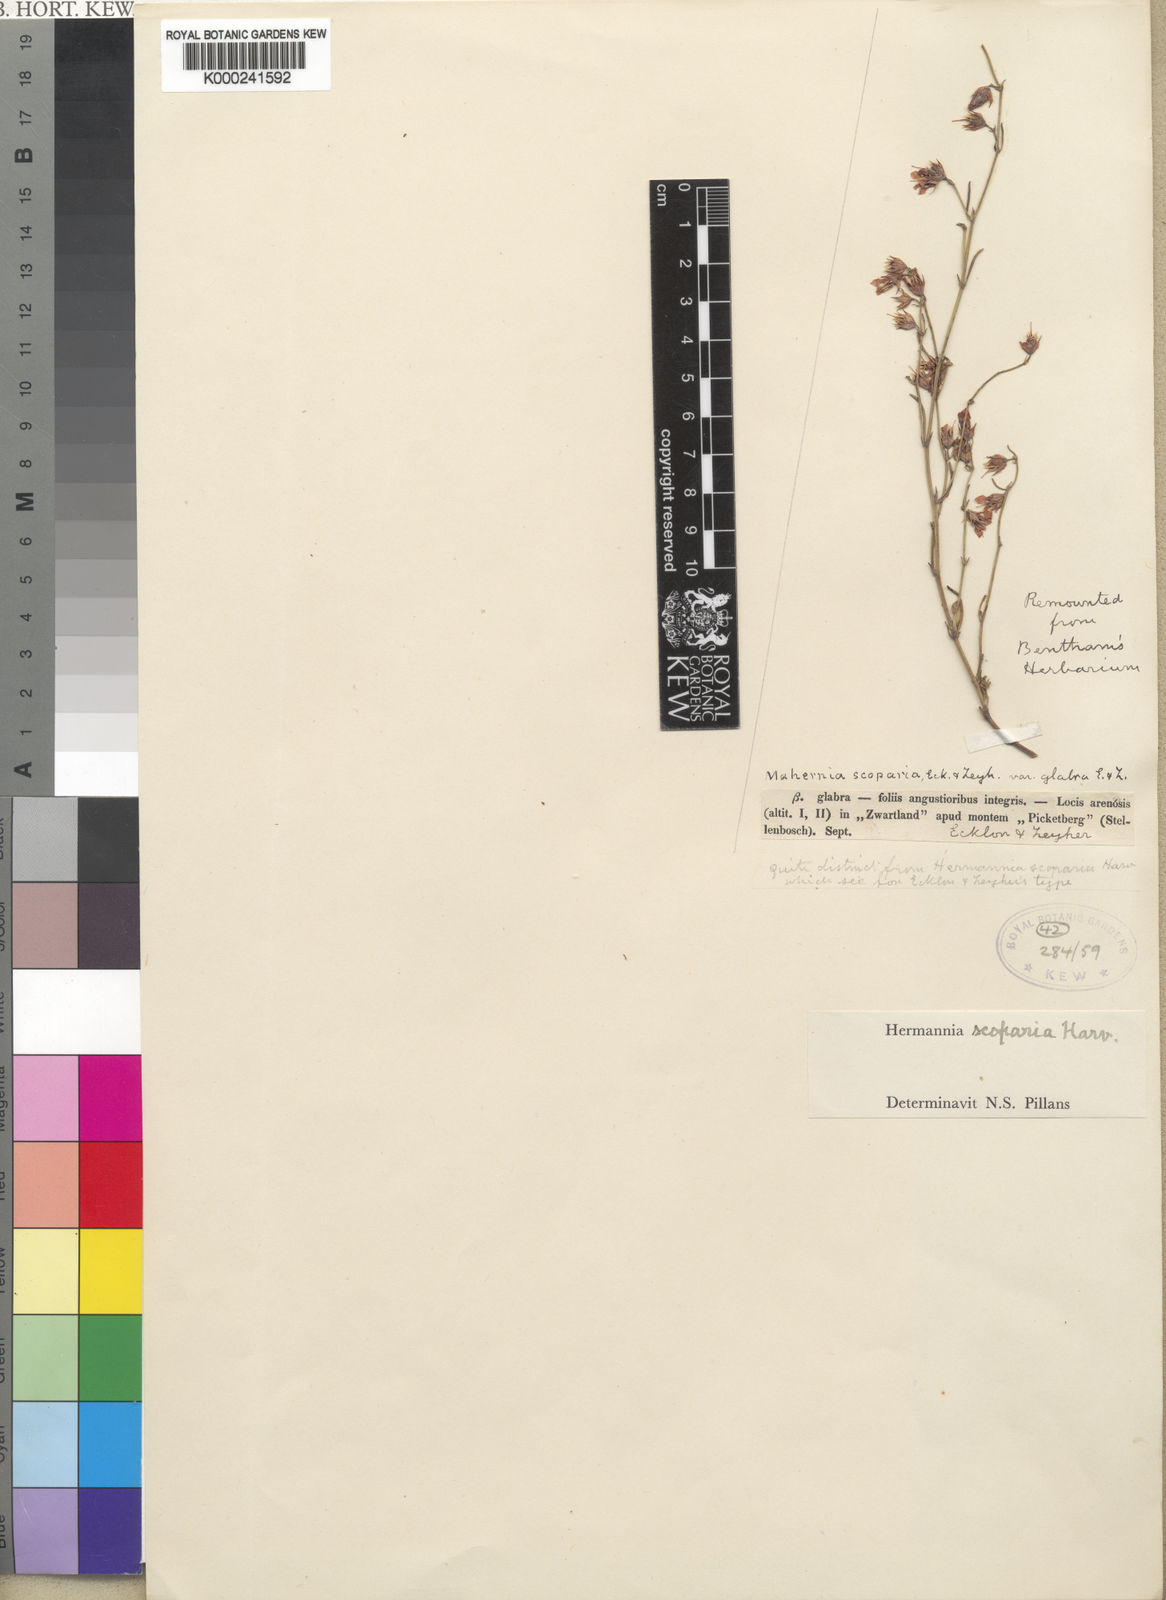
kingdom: Plantae
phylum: Tracheophyta
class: Magnoliopsida
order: Malvales
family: Malvaceae
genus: Hermannia
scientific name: Hermannia linifolia
